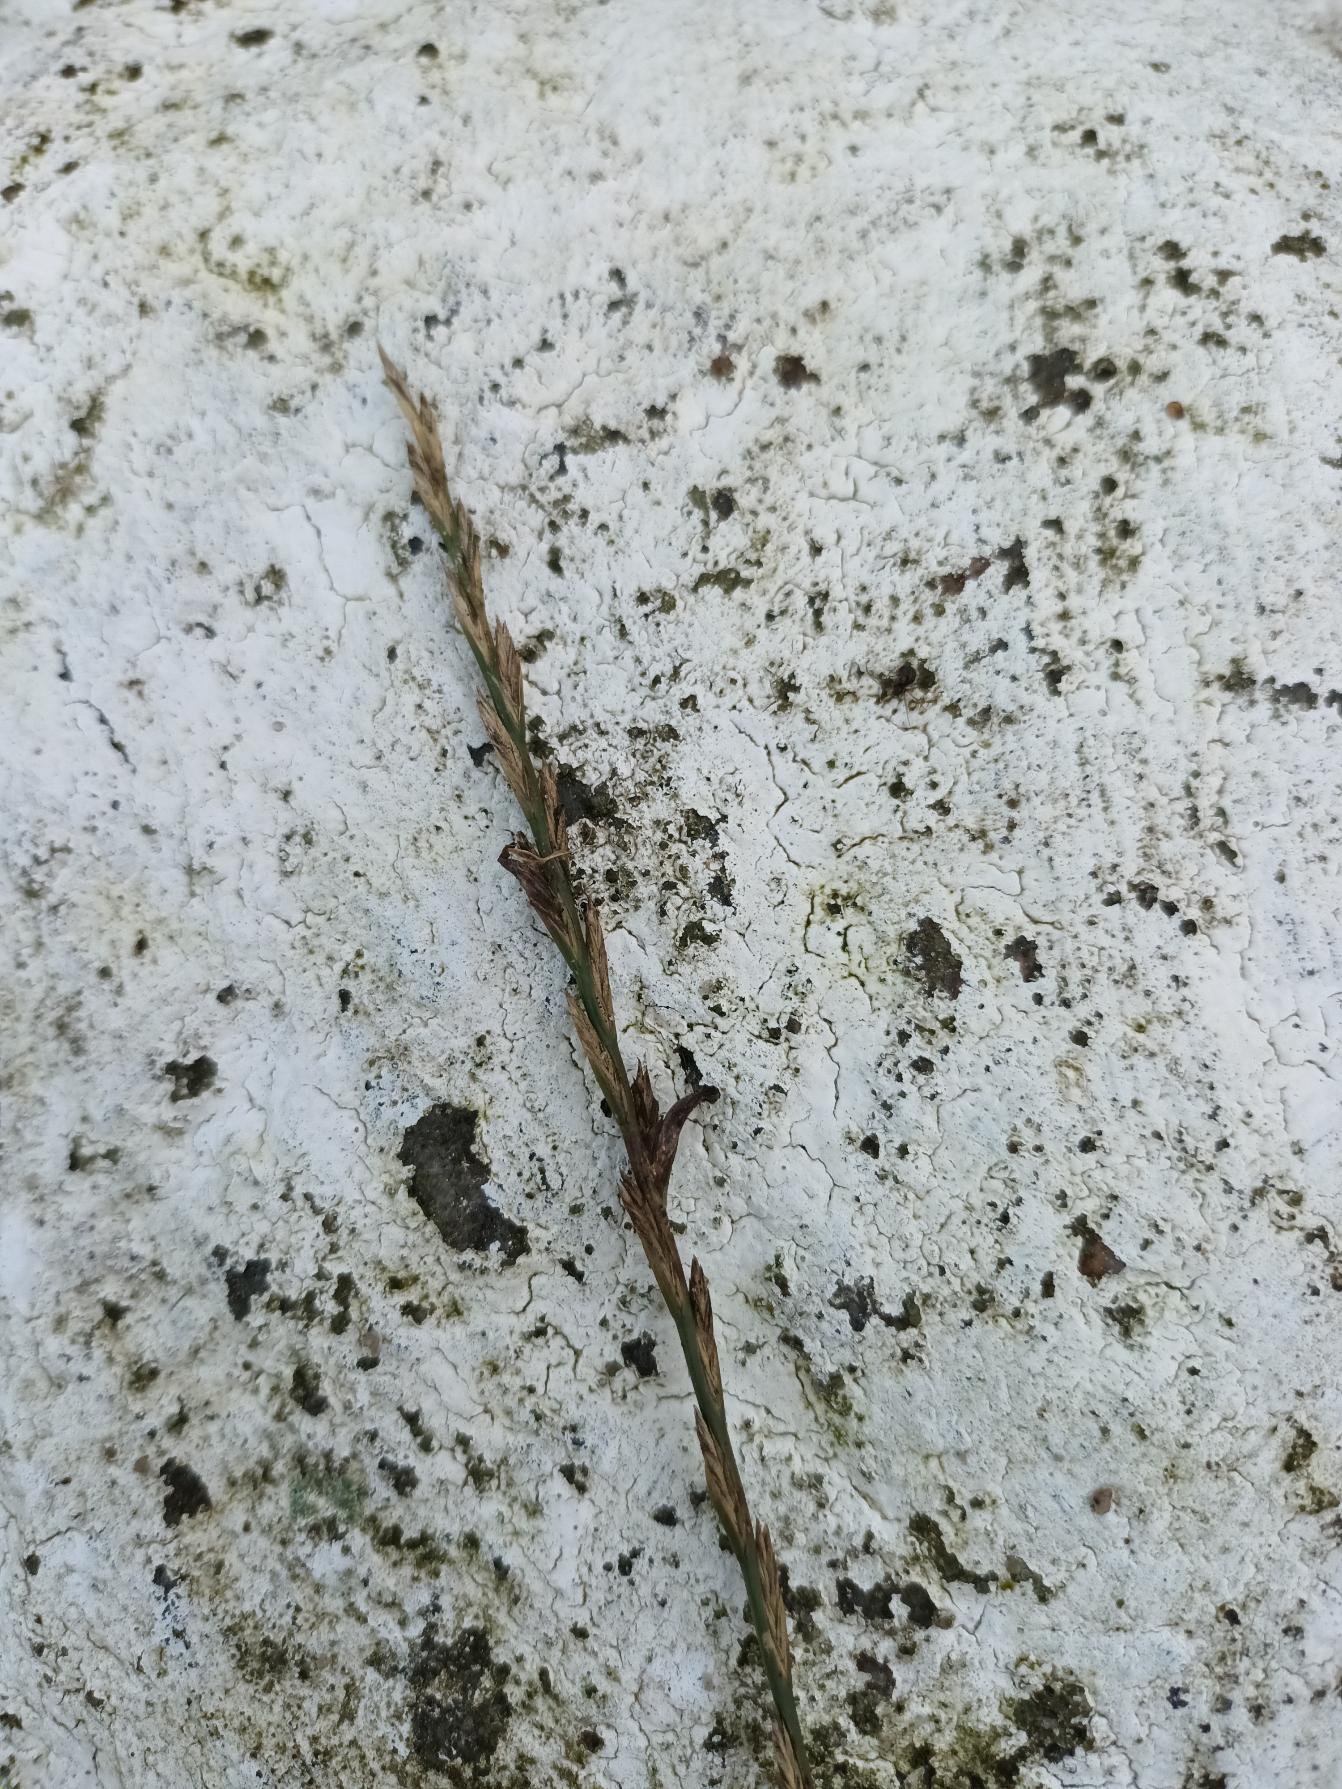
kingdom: Plantae
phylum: Tracheophyta
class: Liliopsida
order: Poales
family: Poaceae
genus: Lolium
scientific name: Lolium perenne
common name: Almindelig rajgræs
